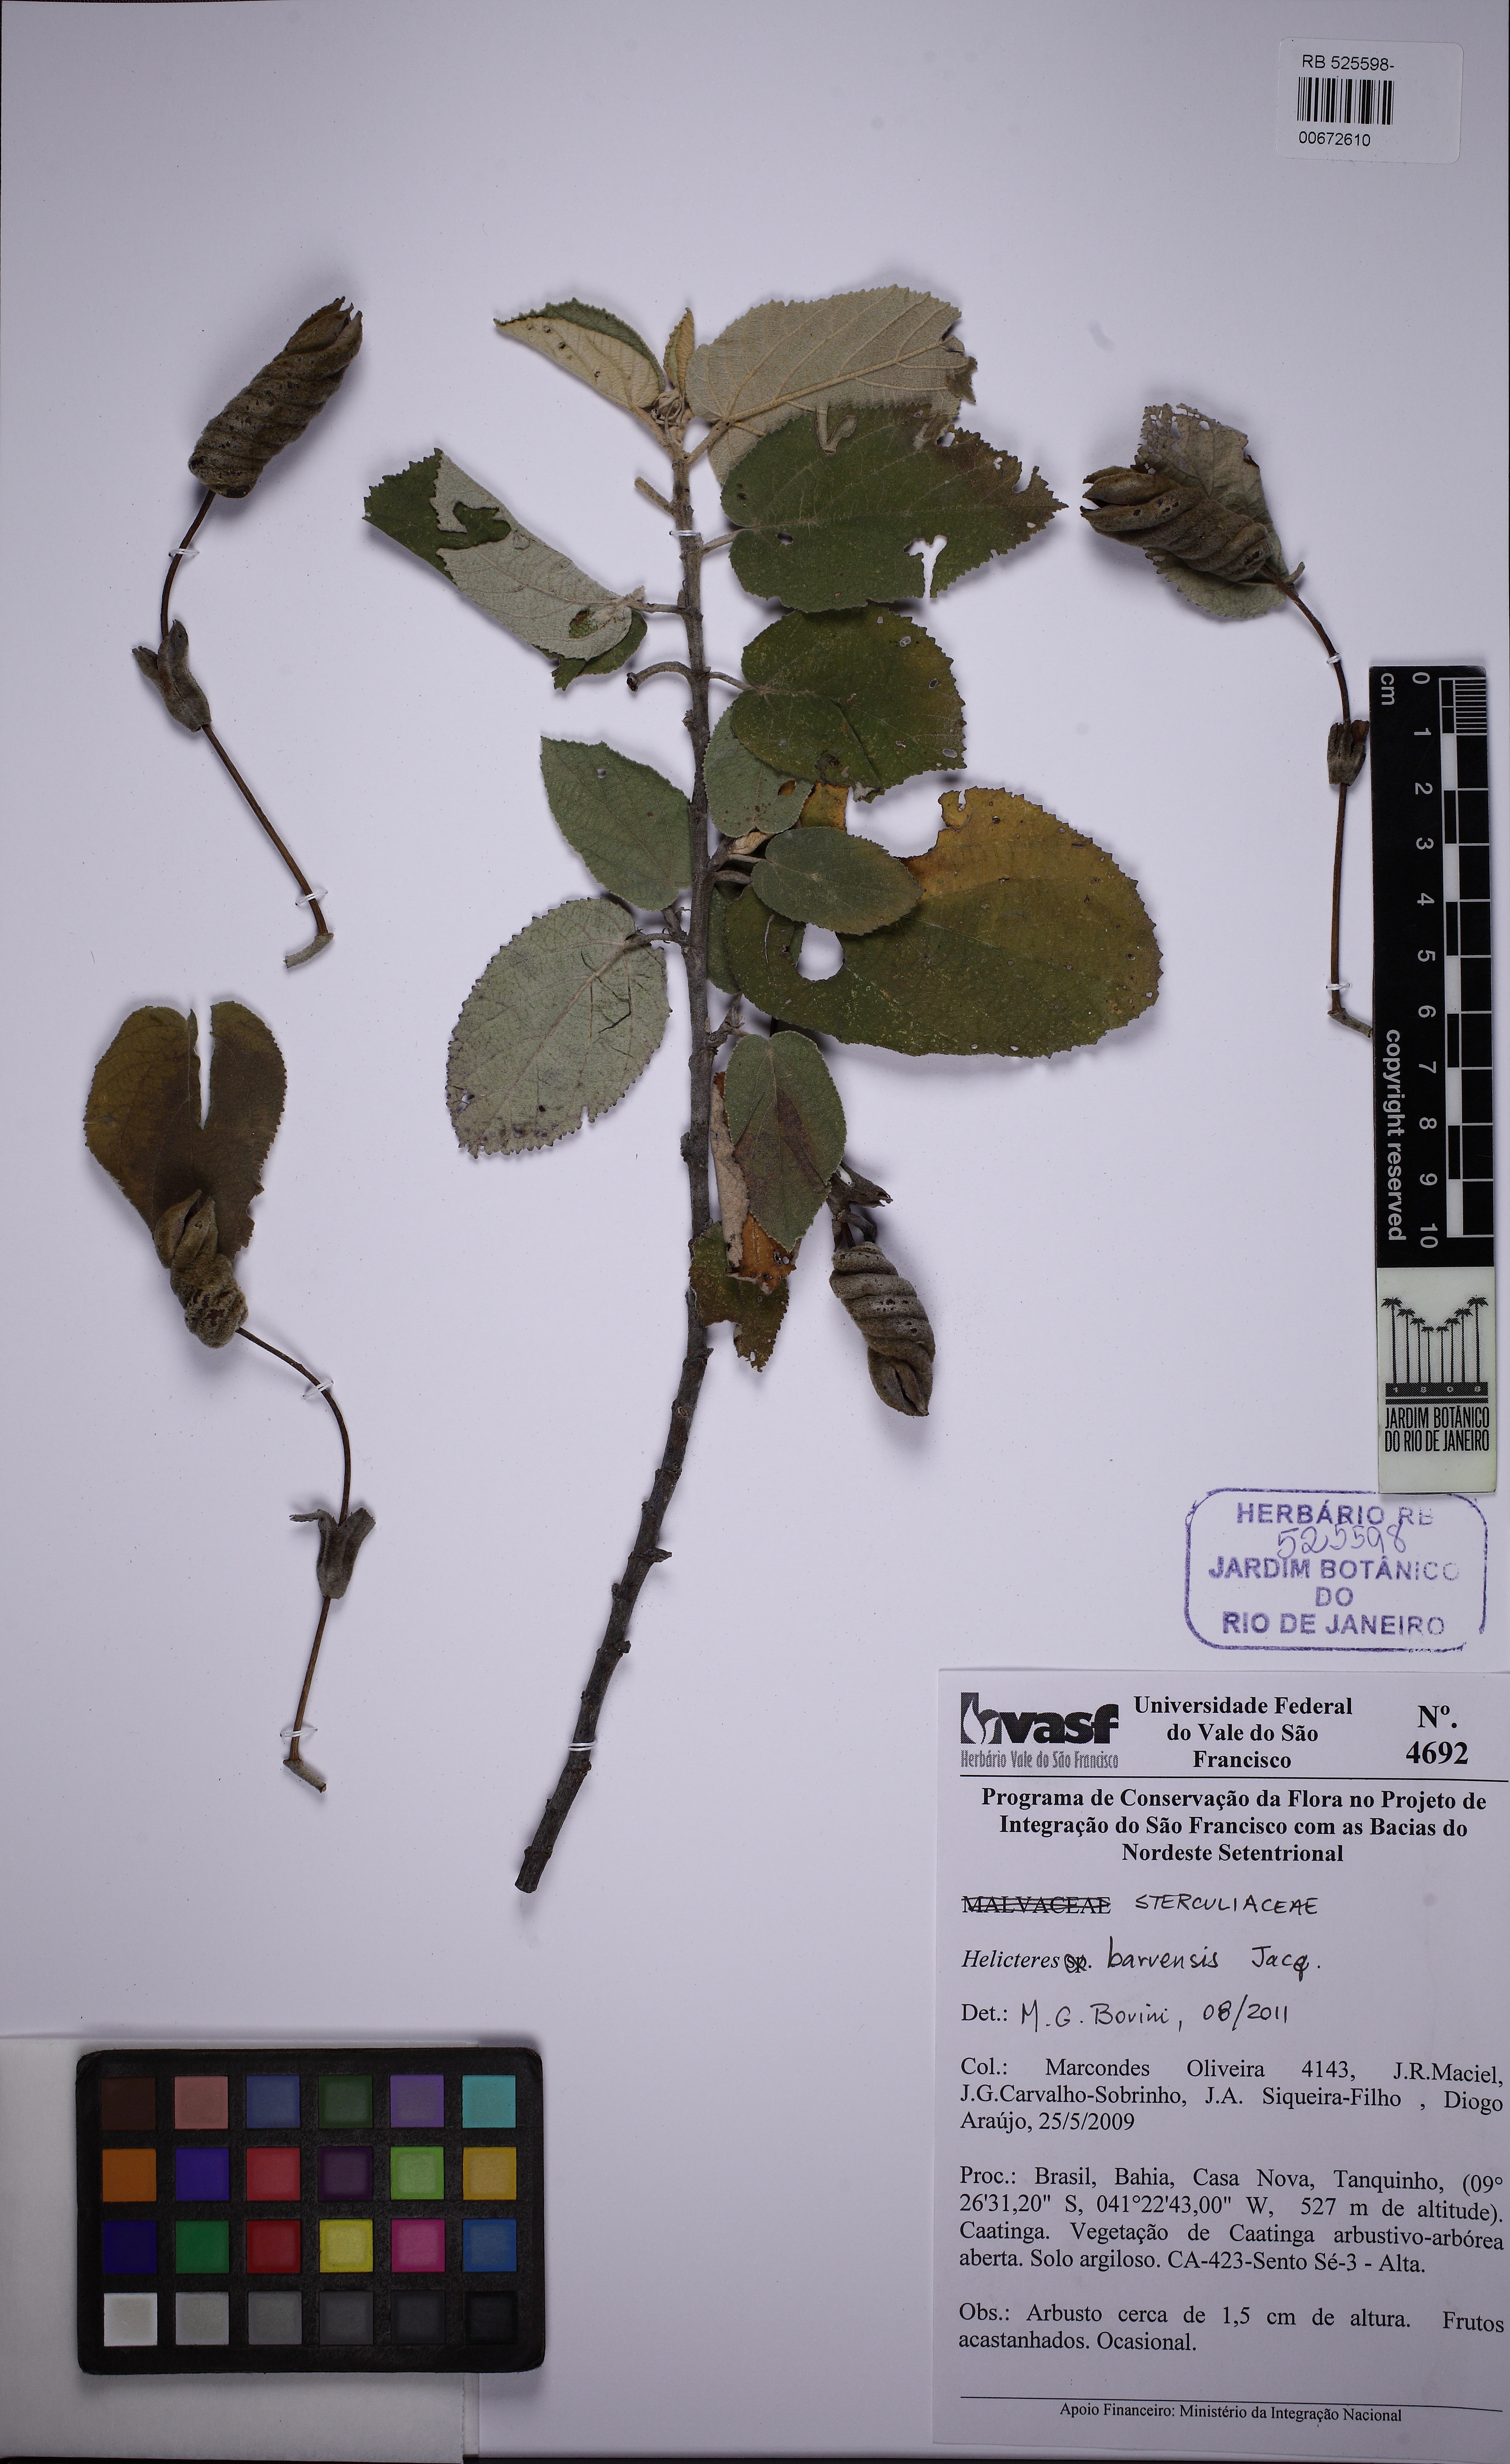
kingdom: Plantae
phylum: Tracheophyta
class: Magnoliopsida
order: Malvales
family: Malvaceae
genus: Helicteres
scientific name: Helicteres baruensis
